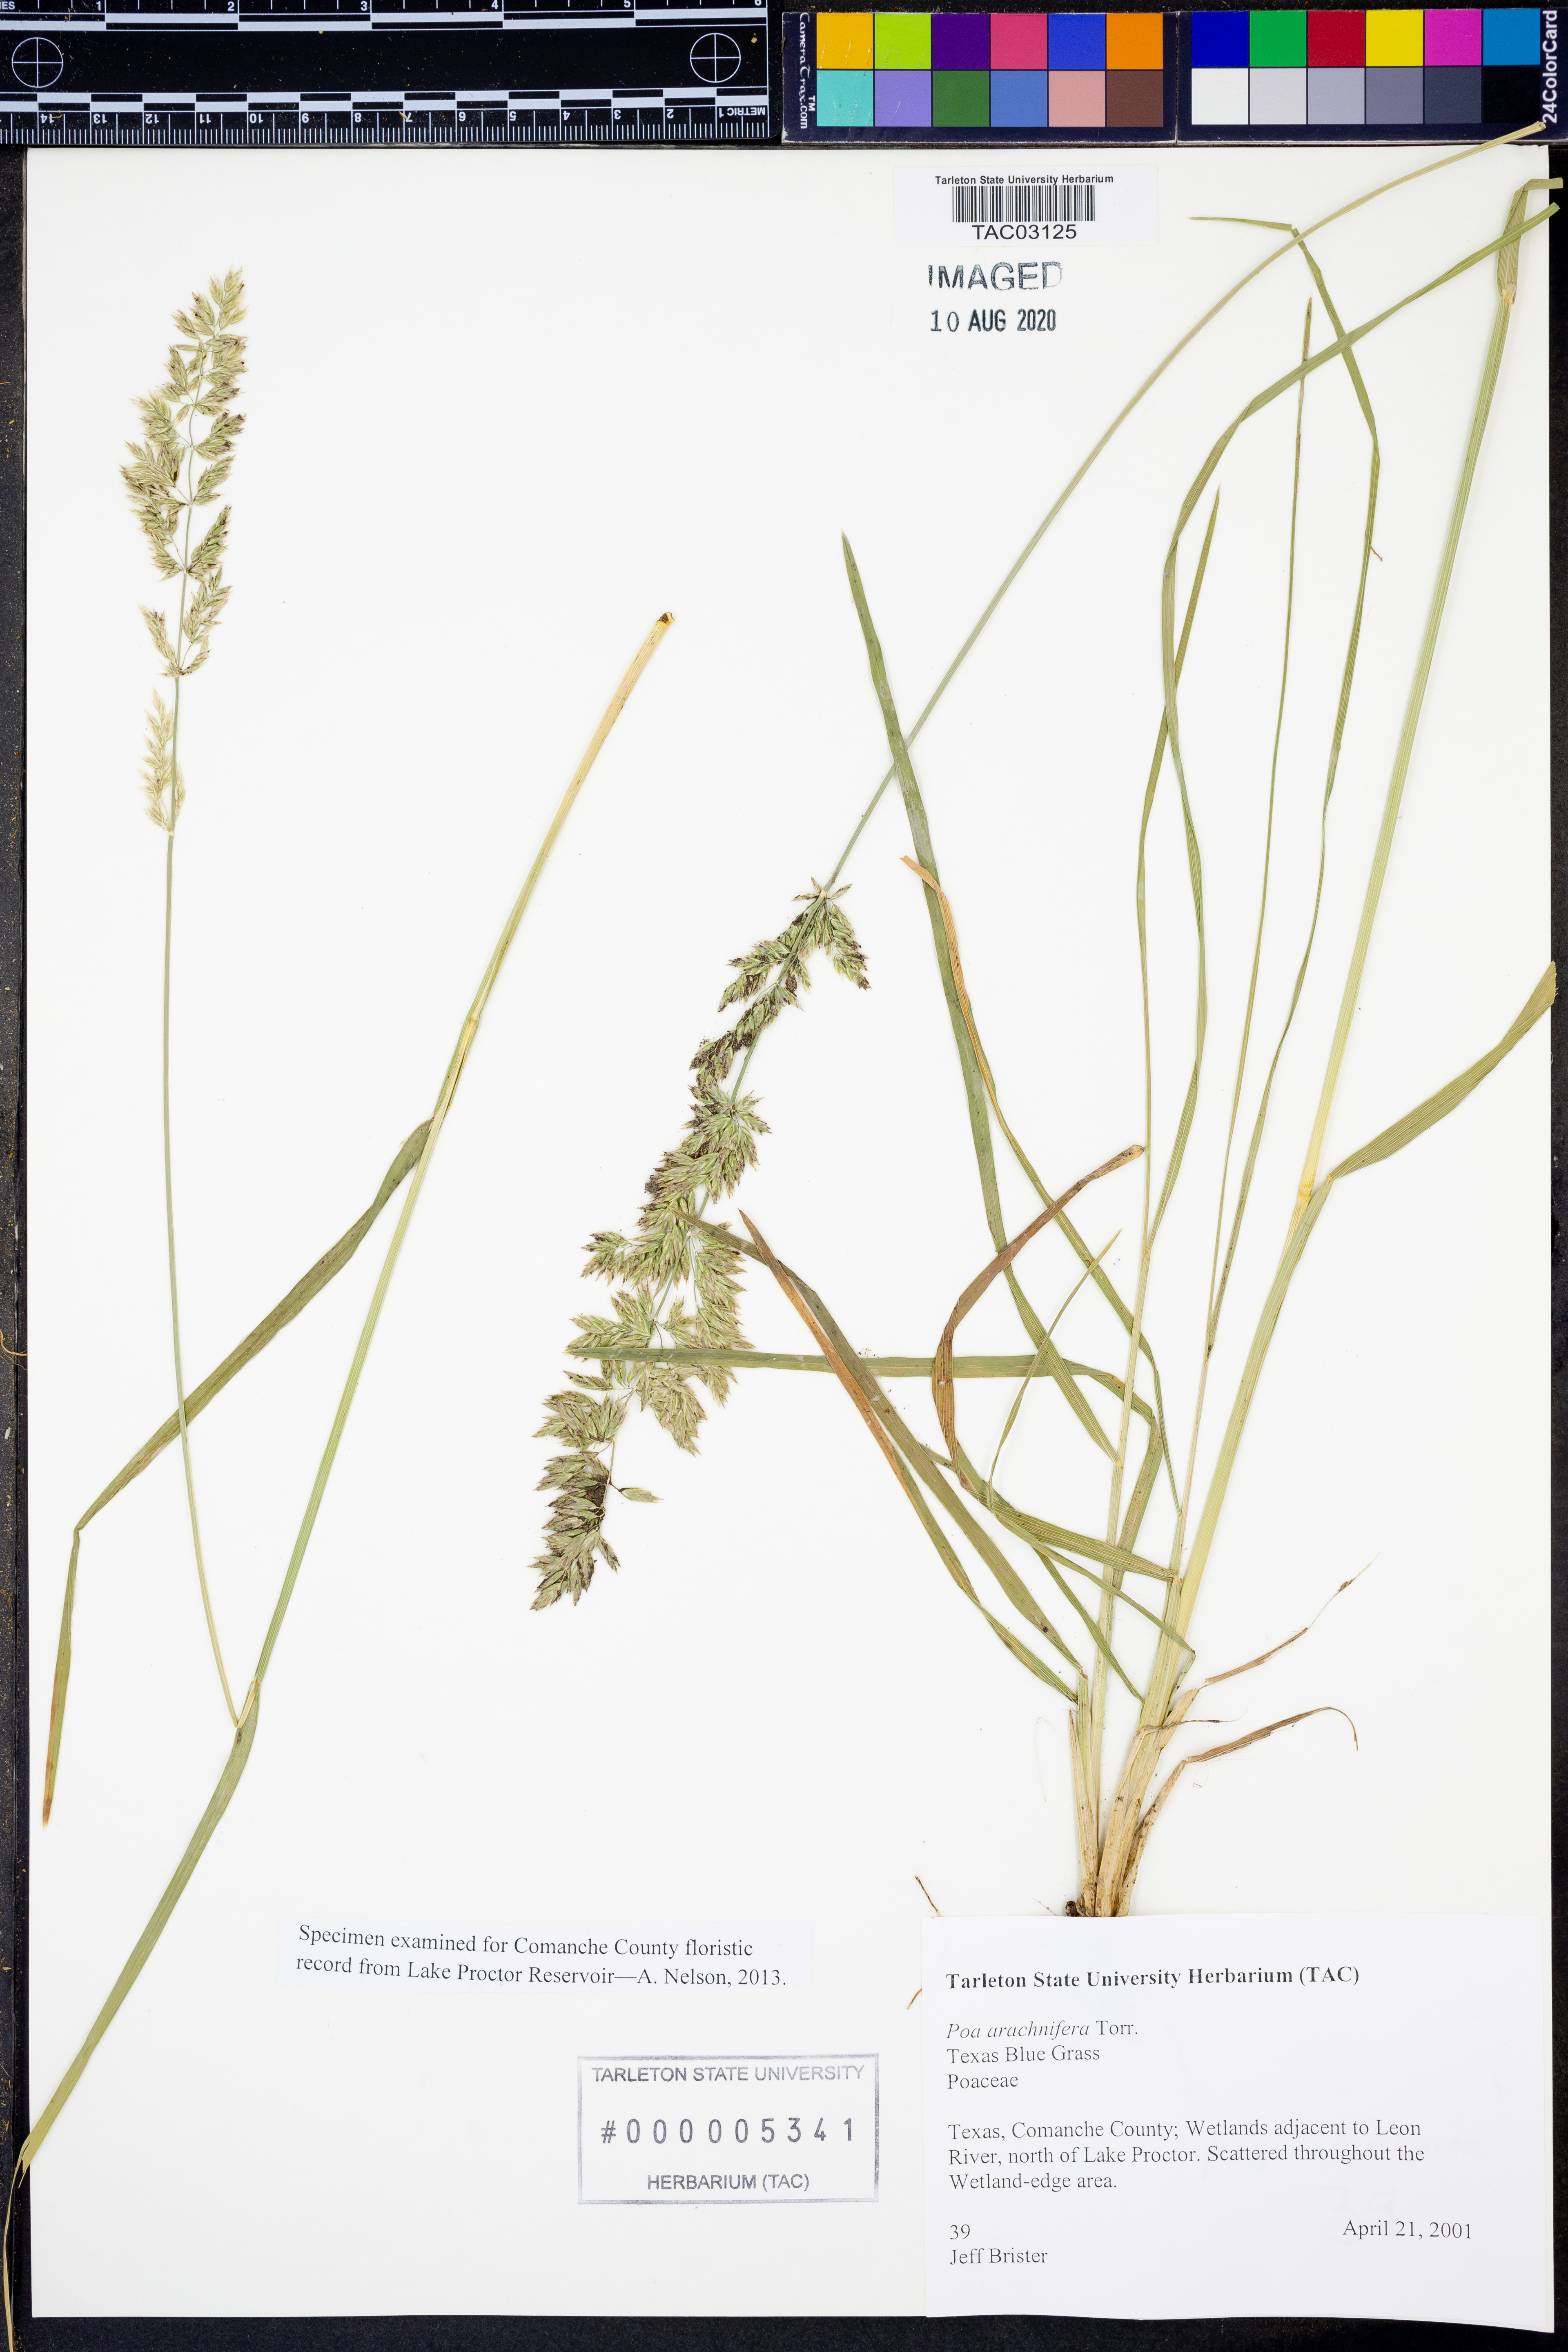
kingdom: Plantae
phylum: Tracheophyta
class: Liliopsida
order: Poales
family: Poaceae
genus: Poa
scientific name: Poa arachnifera
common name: Texas bluegrass
